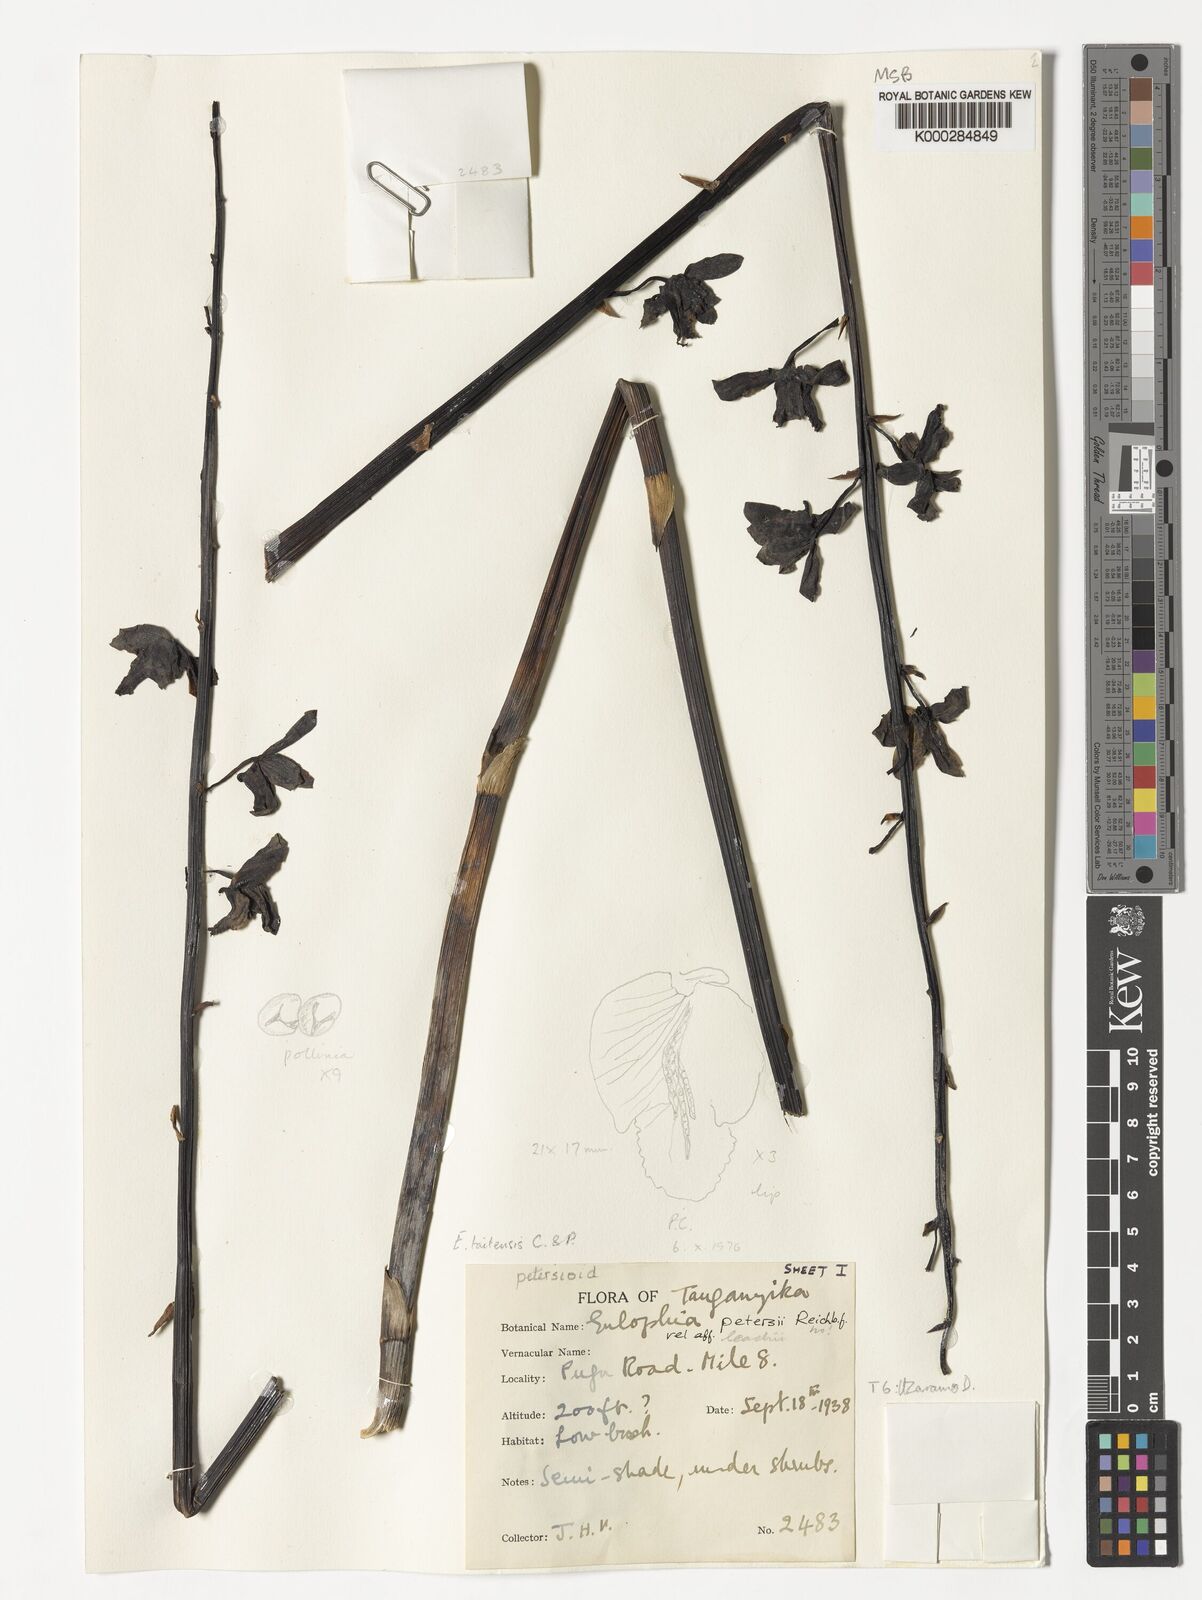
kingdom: Plantae
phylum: Tracheophyta
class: Liliopsida
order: Asparagales
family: Orchidaceae
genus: Eulophia
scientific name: Eulophia taitensis
